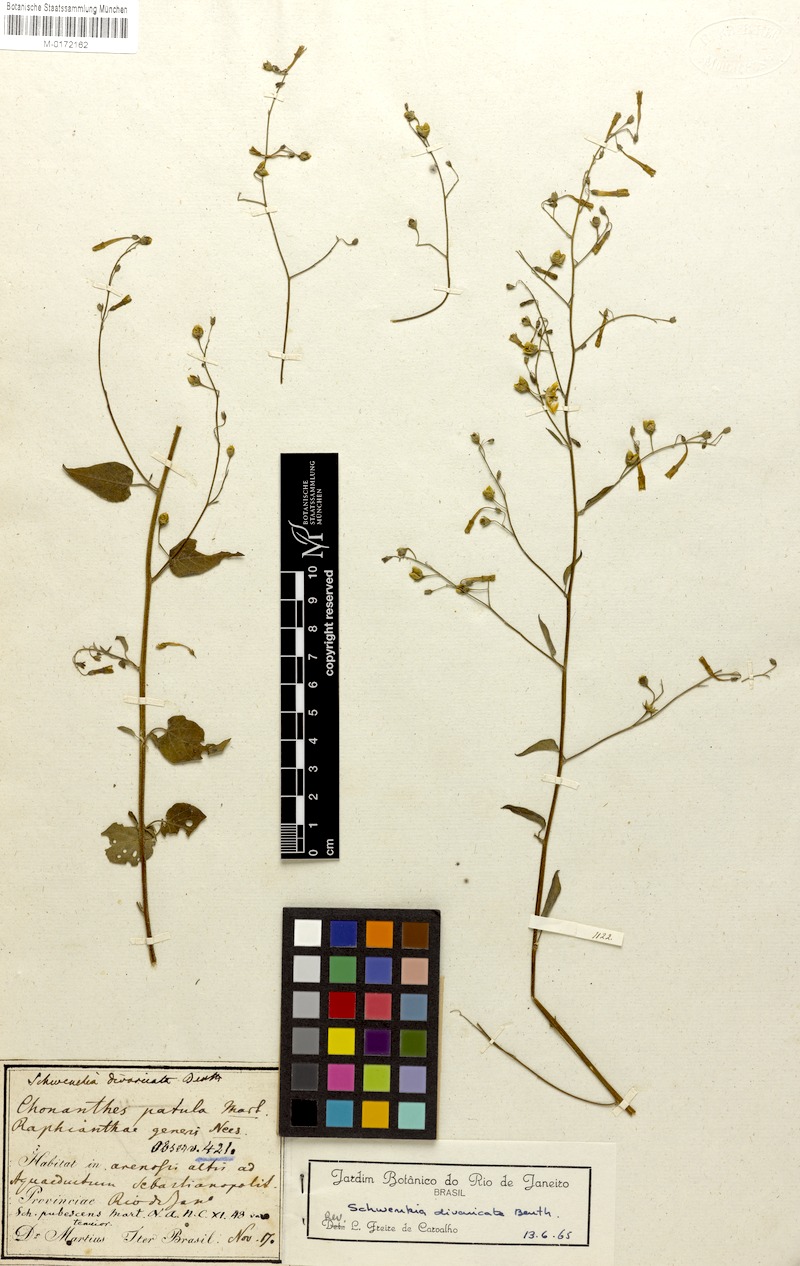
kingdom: Plantae
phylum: Tracheophyta
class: Magnoliopsida
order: Solanales
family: Solanaceae
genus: Schwenckia
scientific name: Schwenckia paniculata
